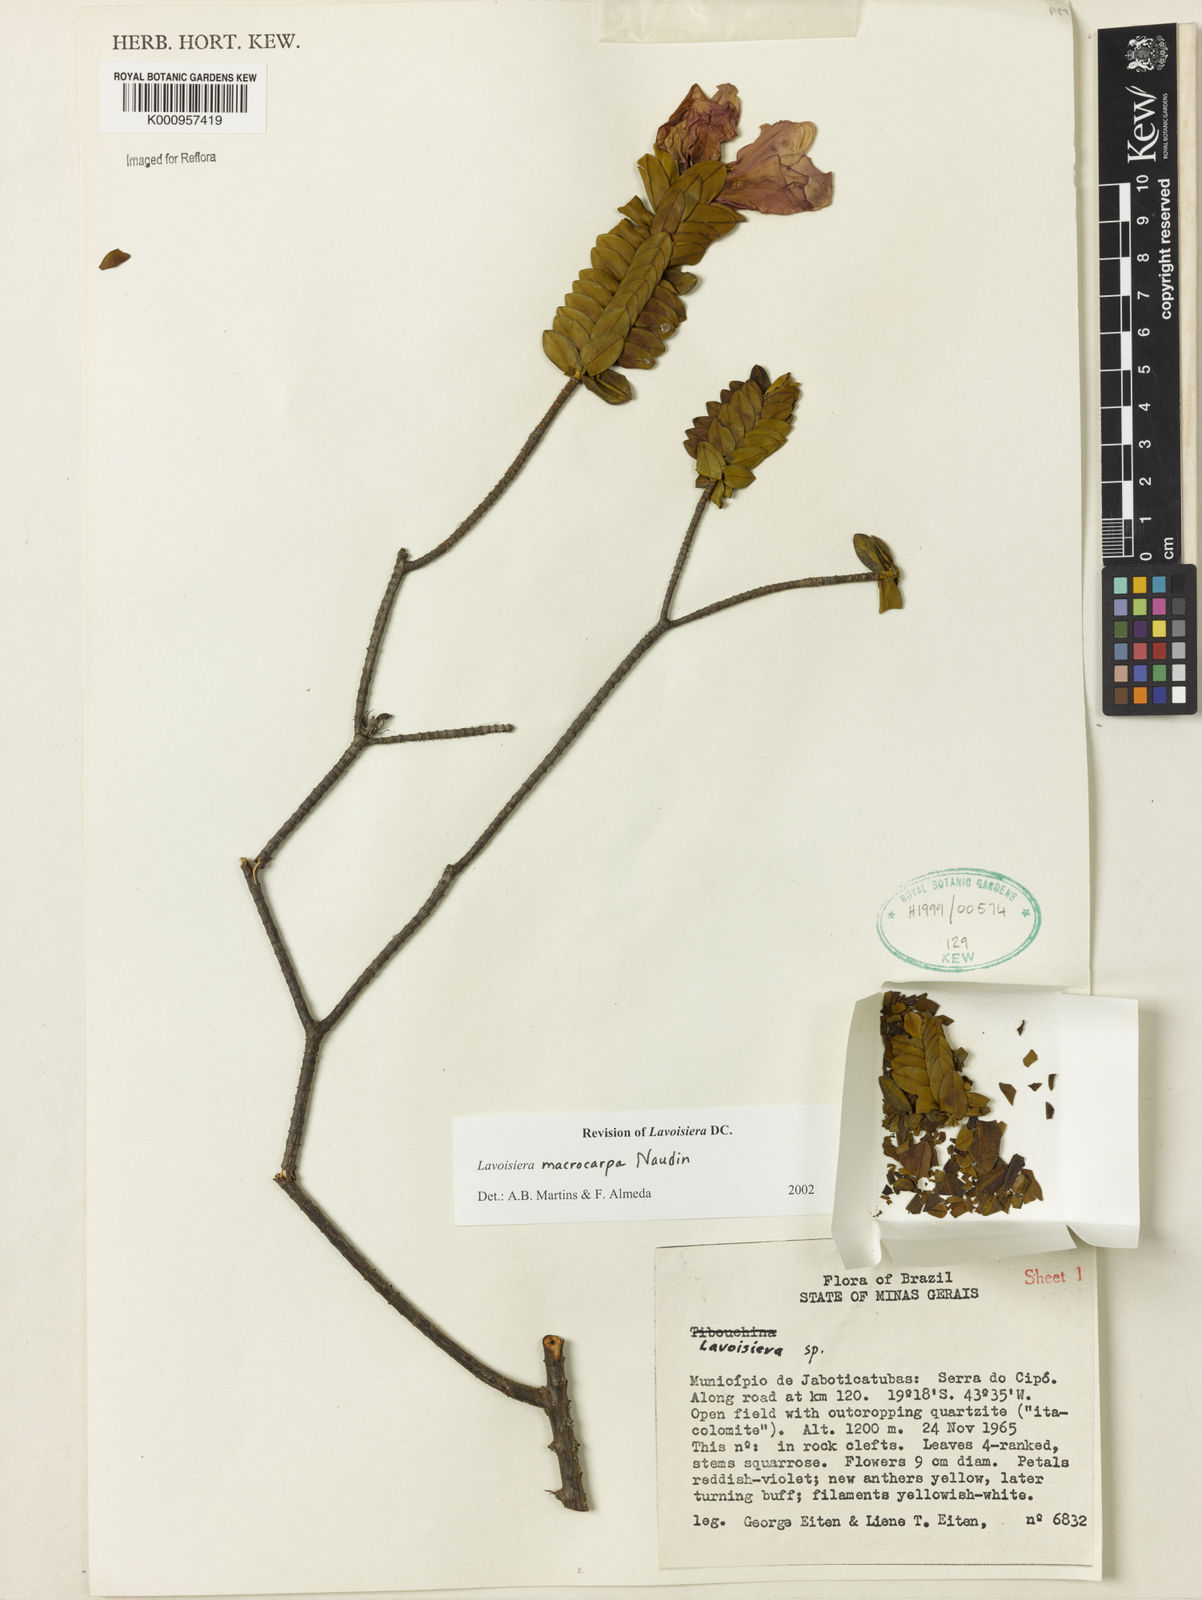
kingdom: Plantae
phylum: Tracheophyta
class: Magnoliopsida
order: Myrtales
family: Melastomataceae
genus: Microlicia
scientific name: Microlicia macrocarpa
